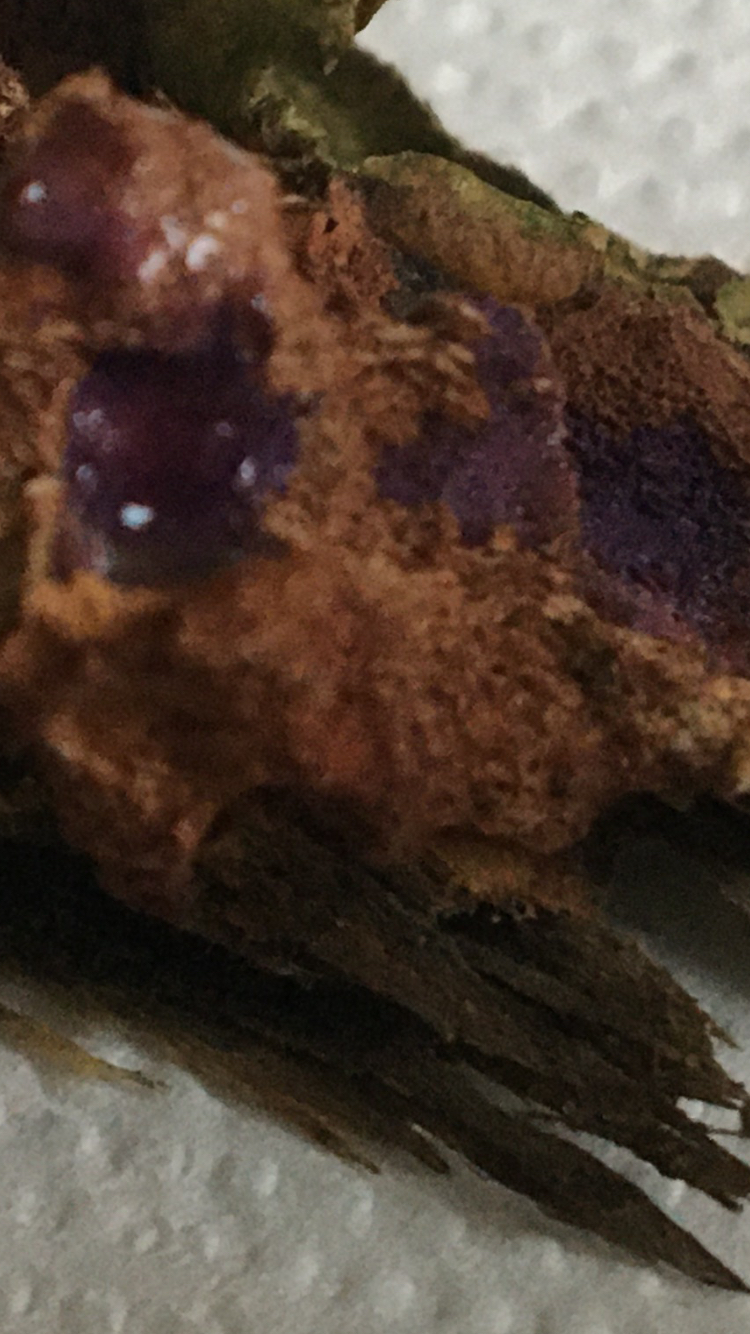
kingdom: Fungi
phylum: Basidiomycota
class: Agaricomycetes
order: Polyporales
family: Phanerochaetaceae
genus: Hapalopilus
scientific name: Hapalopilus rutilans
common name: rødlig okkerporesvamp
